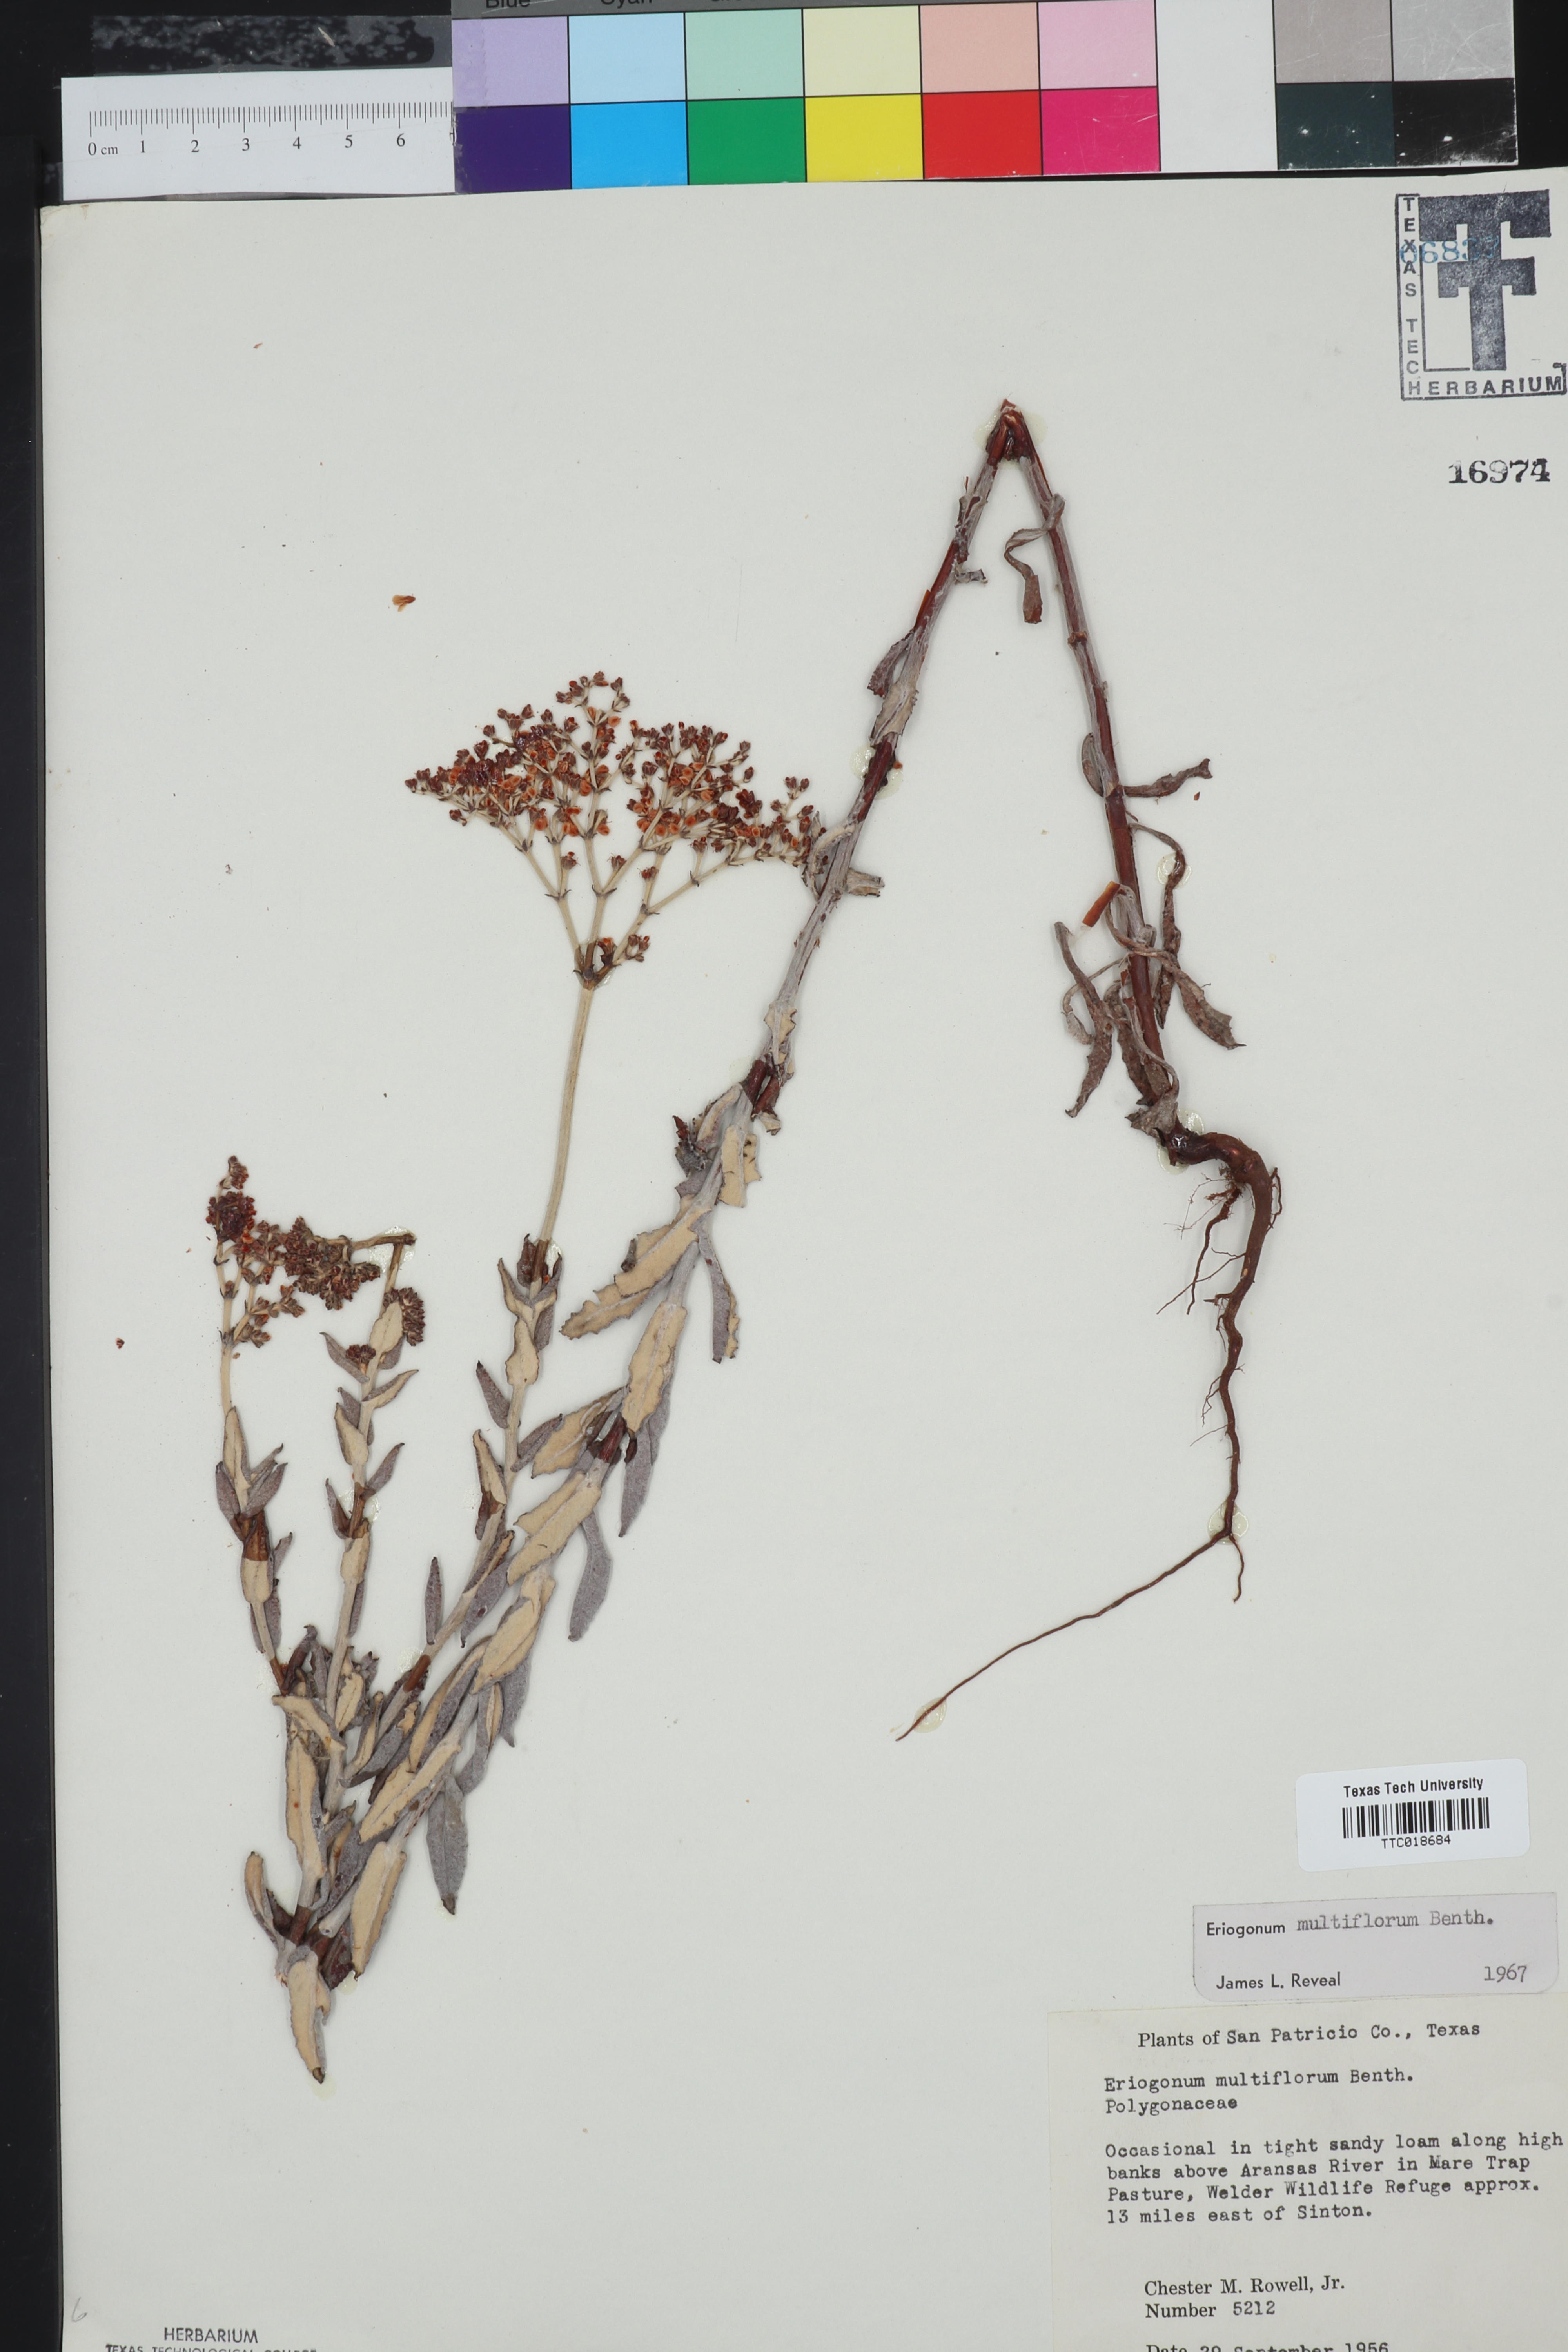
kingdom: Plantae
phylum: Tracheophyta
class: Magnoliopsida
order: Caryophyllales
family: Polygonaceae
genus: Eriogonum
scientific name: Eriogonum multiflorum
